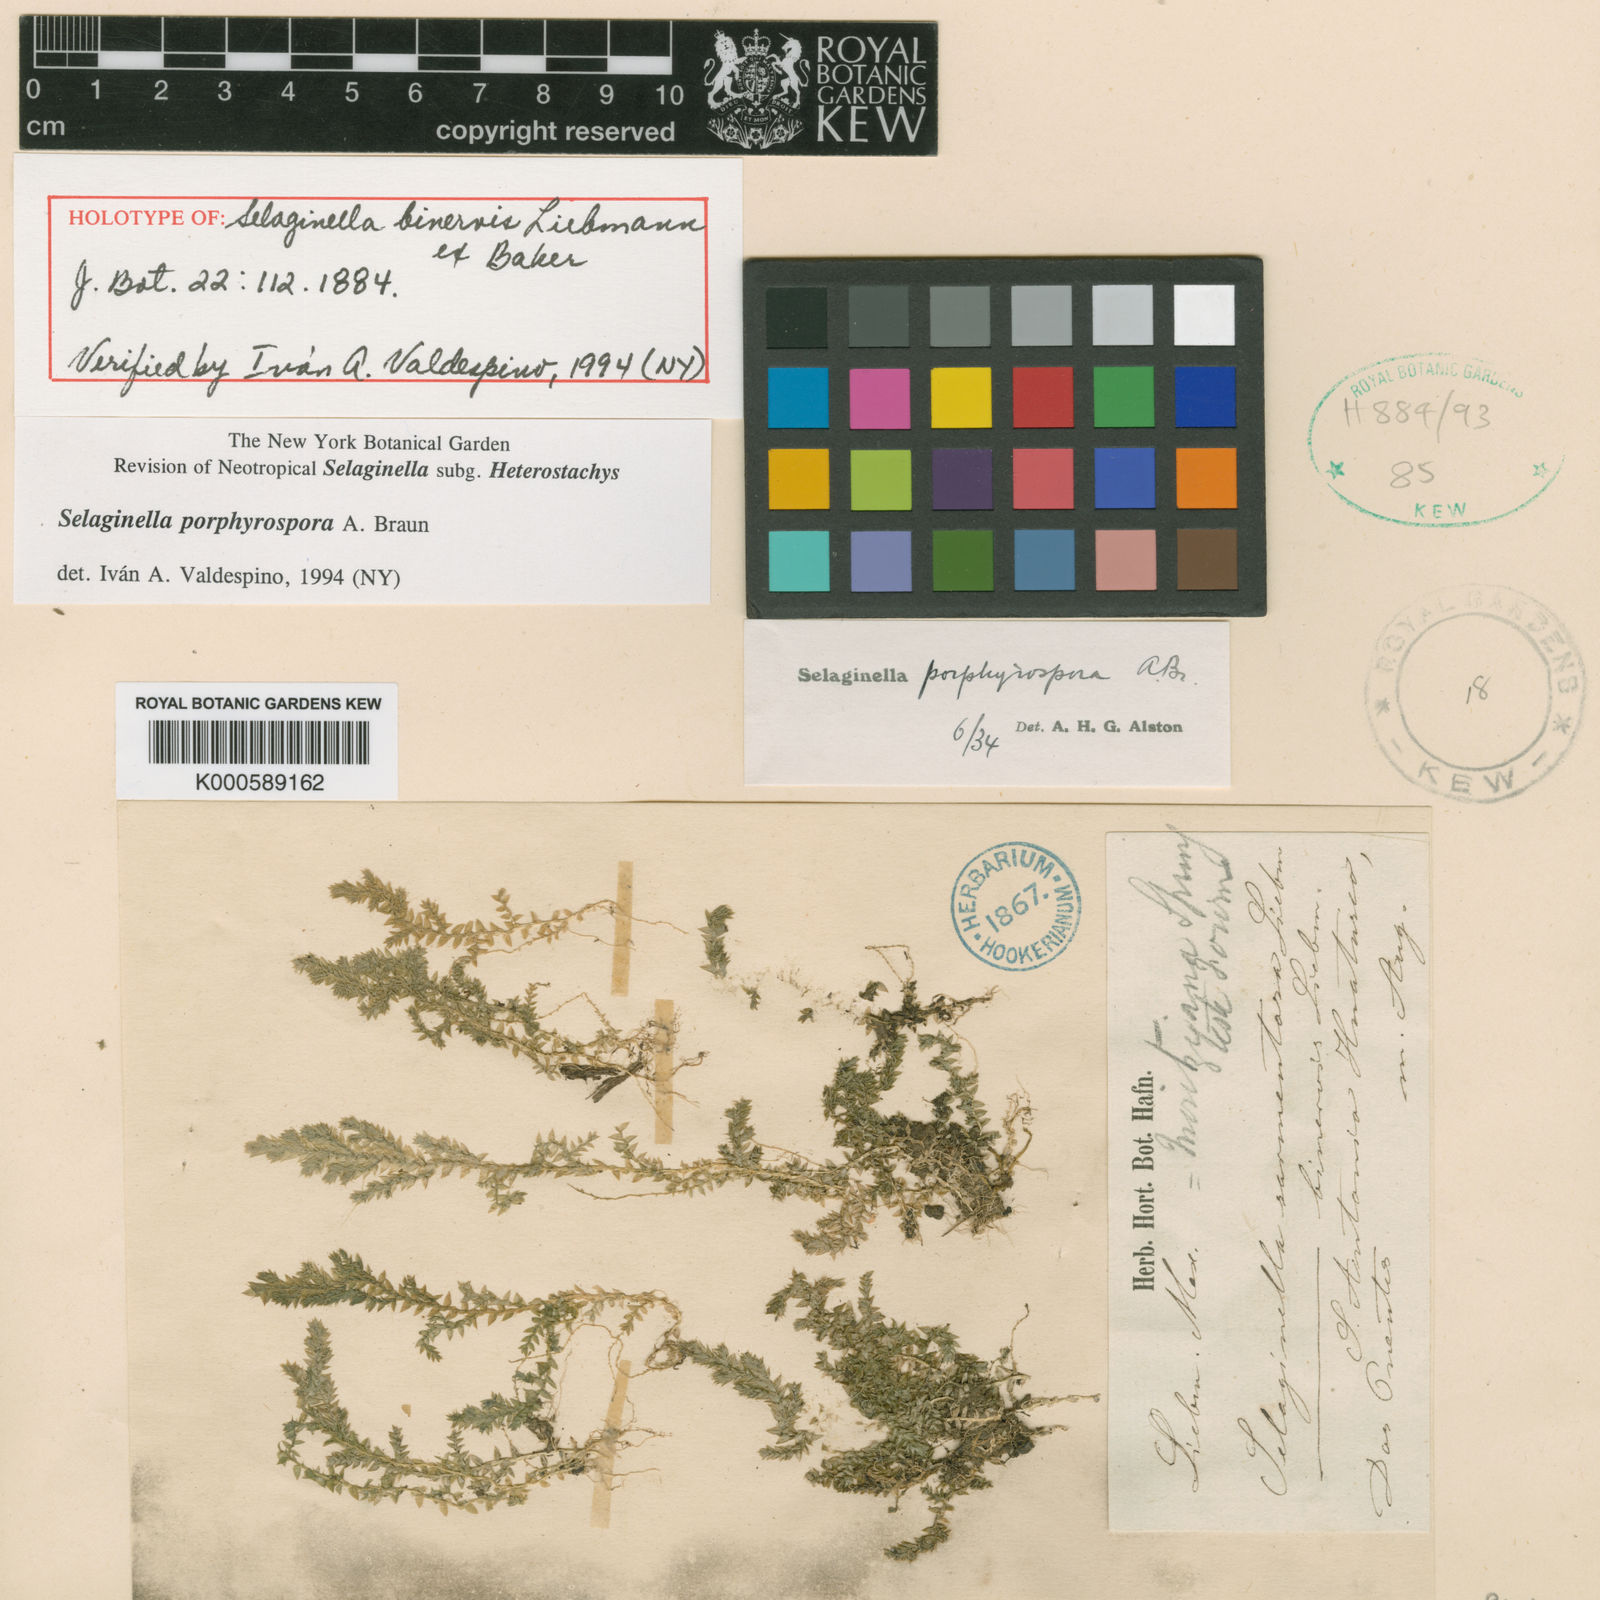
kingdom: Plantae
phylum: Tracheophyta
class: Lycopodiopsida
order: Selaginellales
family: Selaginellaceae
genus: Selaginella
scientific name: Selaginella
